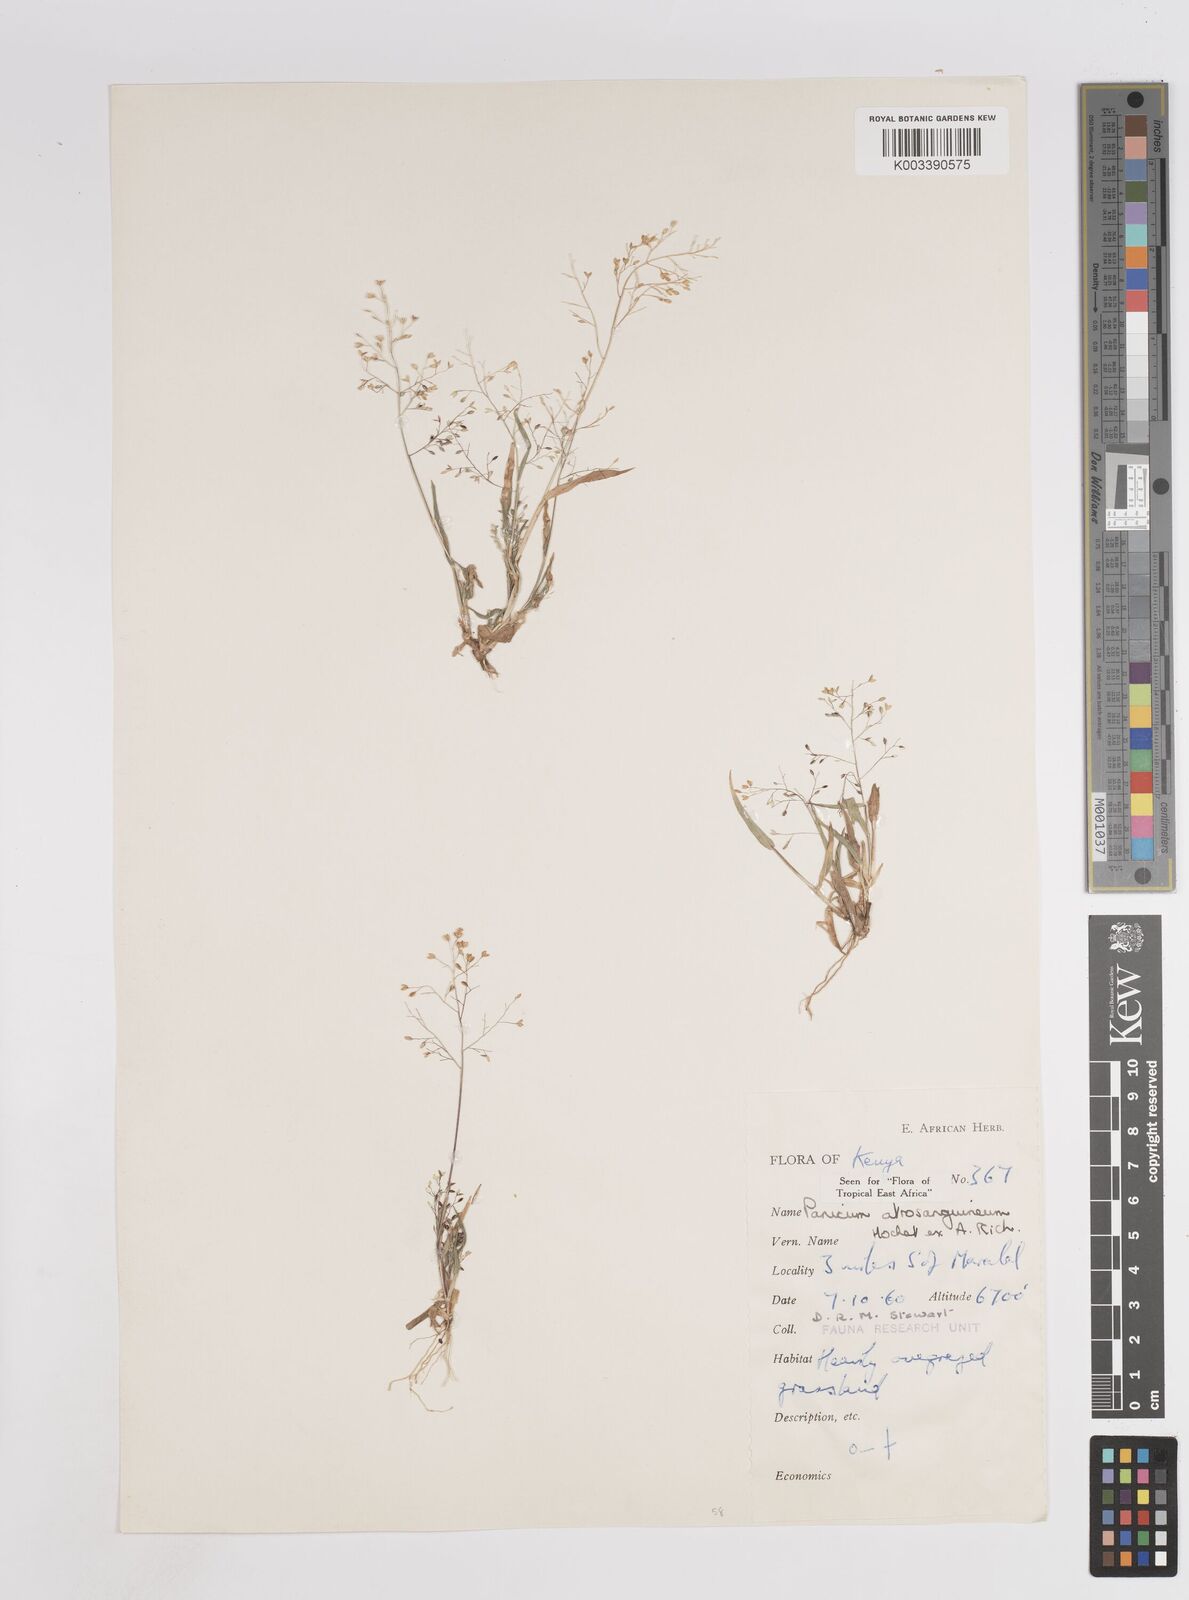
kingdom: Plantae
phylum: Tracheophyta
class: Liliopsida
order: Poales
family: Poaceae
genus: Panicum
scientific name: Panicum atrosanguineum
